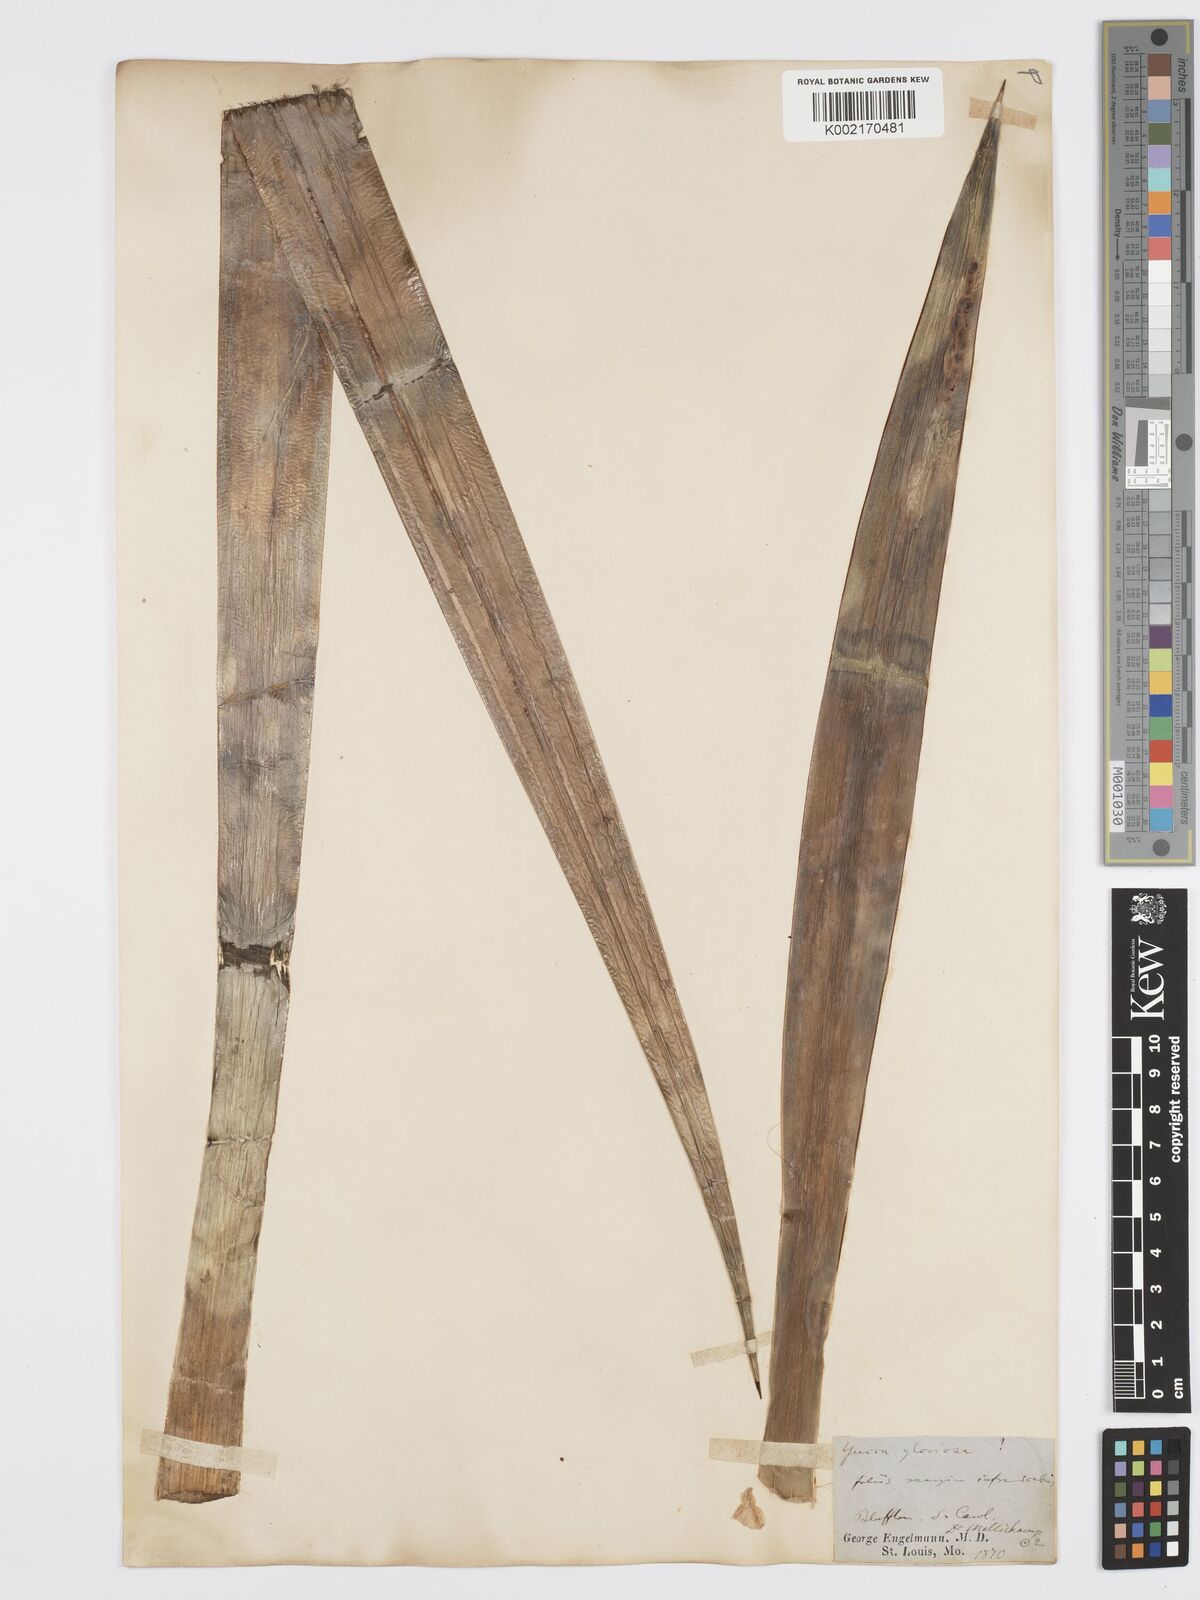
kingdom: Plantae
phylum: Tracheophyta
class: Liliopsida
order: Asparagales
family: Asparagaceae
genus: Yucca
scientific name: Yucca gloriosa
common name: Spanish-dagger
